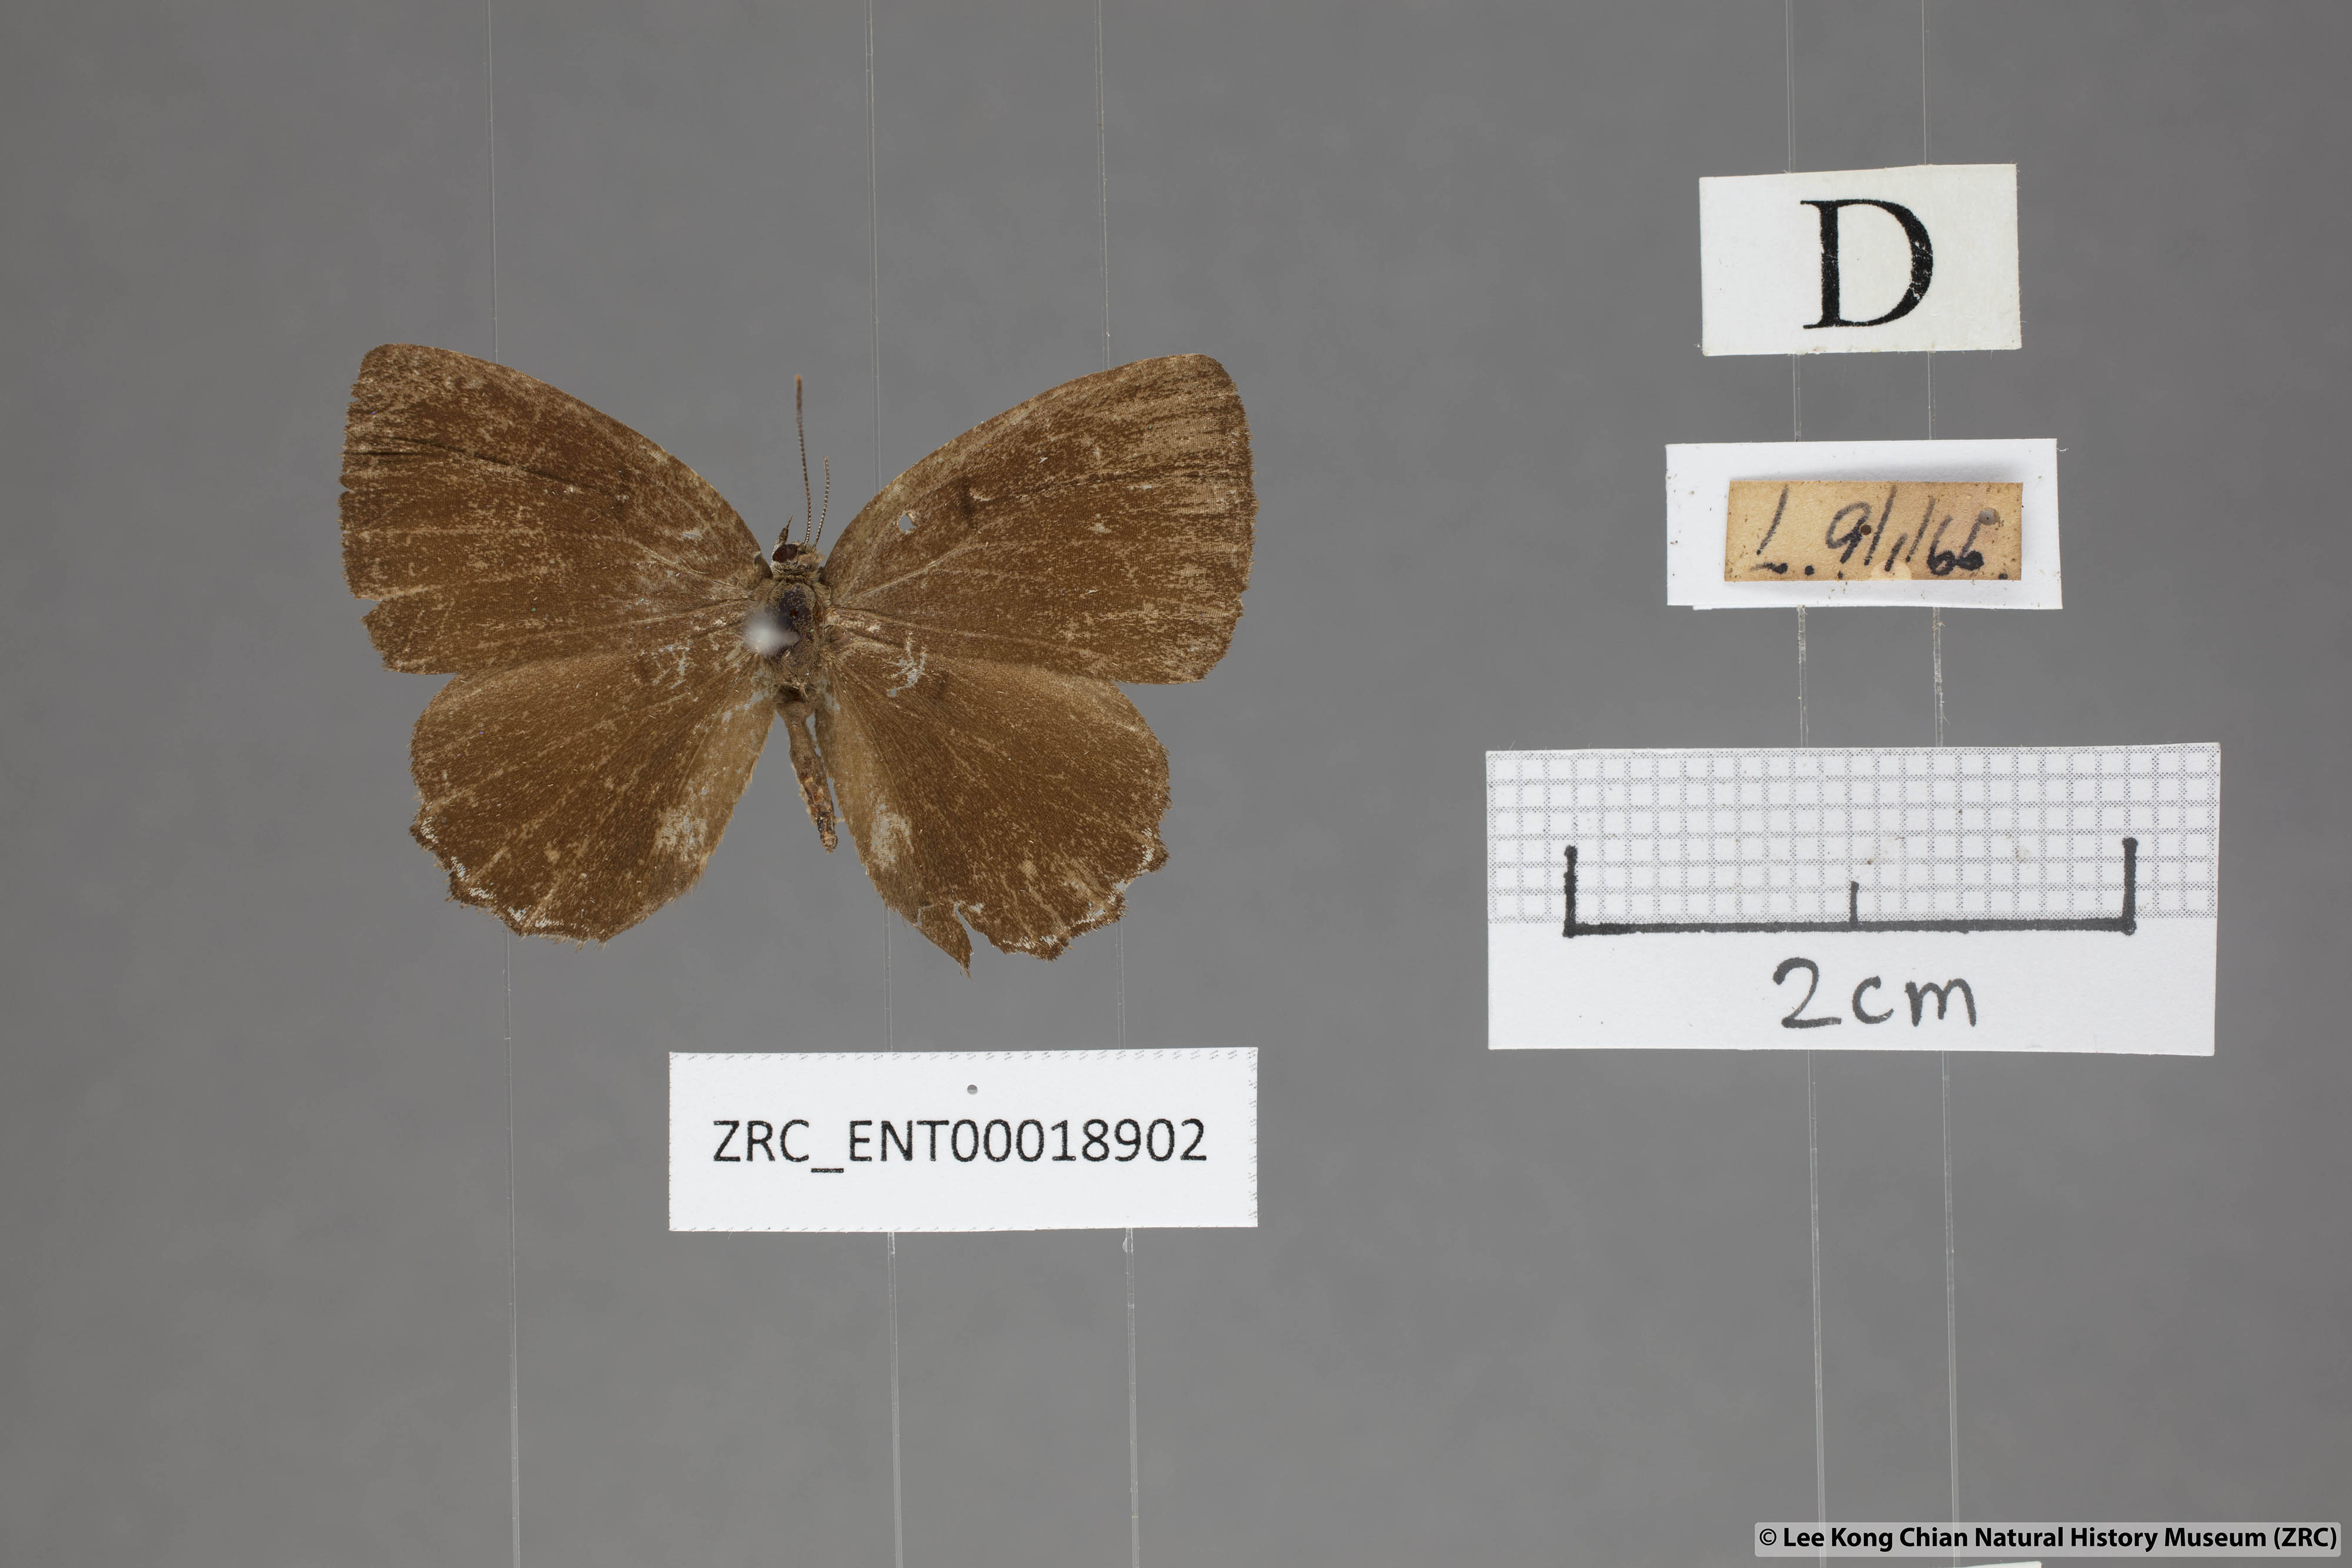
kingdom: Animalia
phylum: Arthropoda
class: Insecta
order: Lepidoptera
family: Lycaenidae
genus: Simiskina
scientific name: Simiskina
